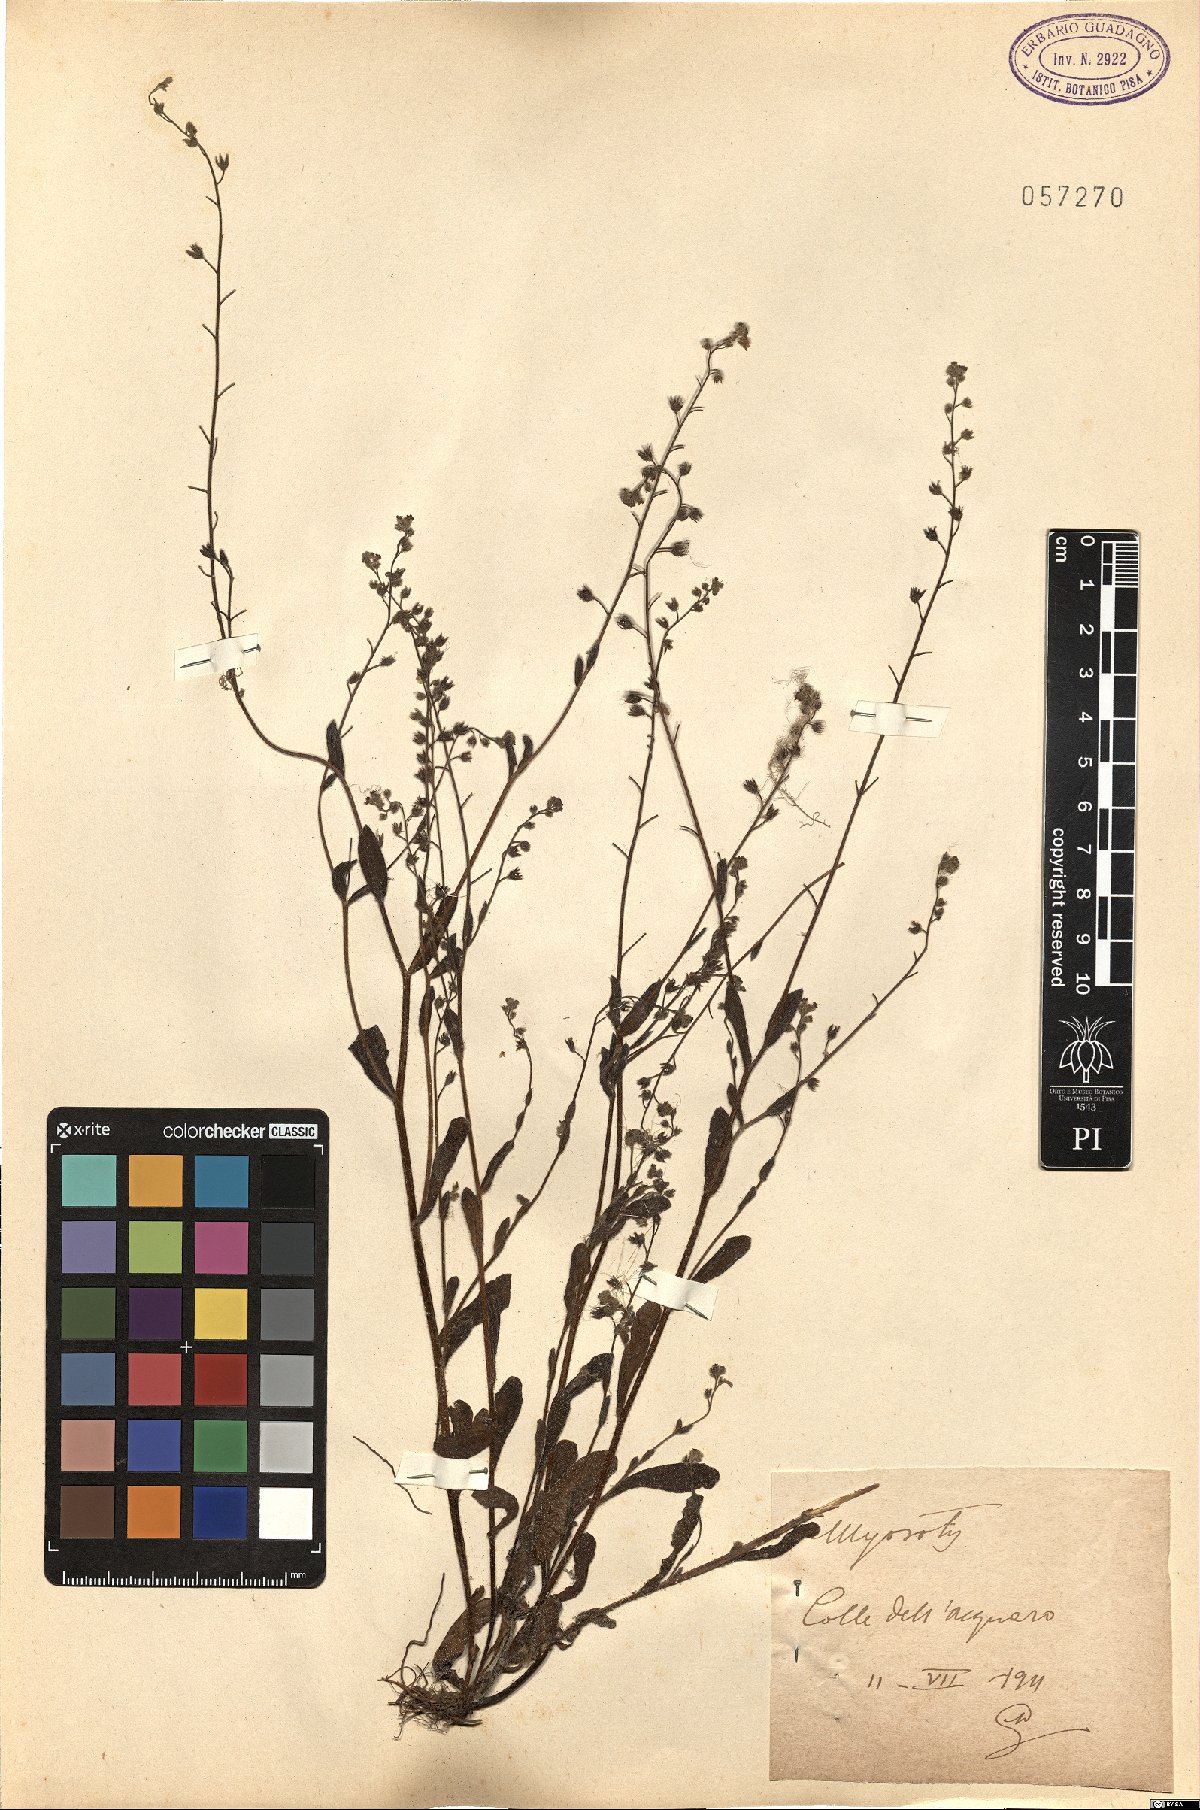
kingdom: Plantae
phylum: Tracheophyta
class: Magnoliopsida
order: Boraginales
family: Boraginaceae
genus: Myosotis
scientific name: Myosotis
